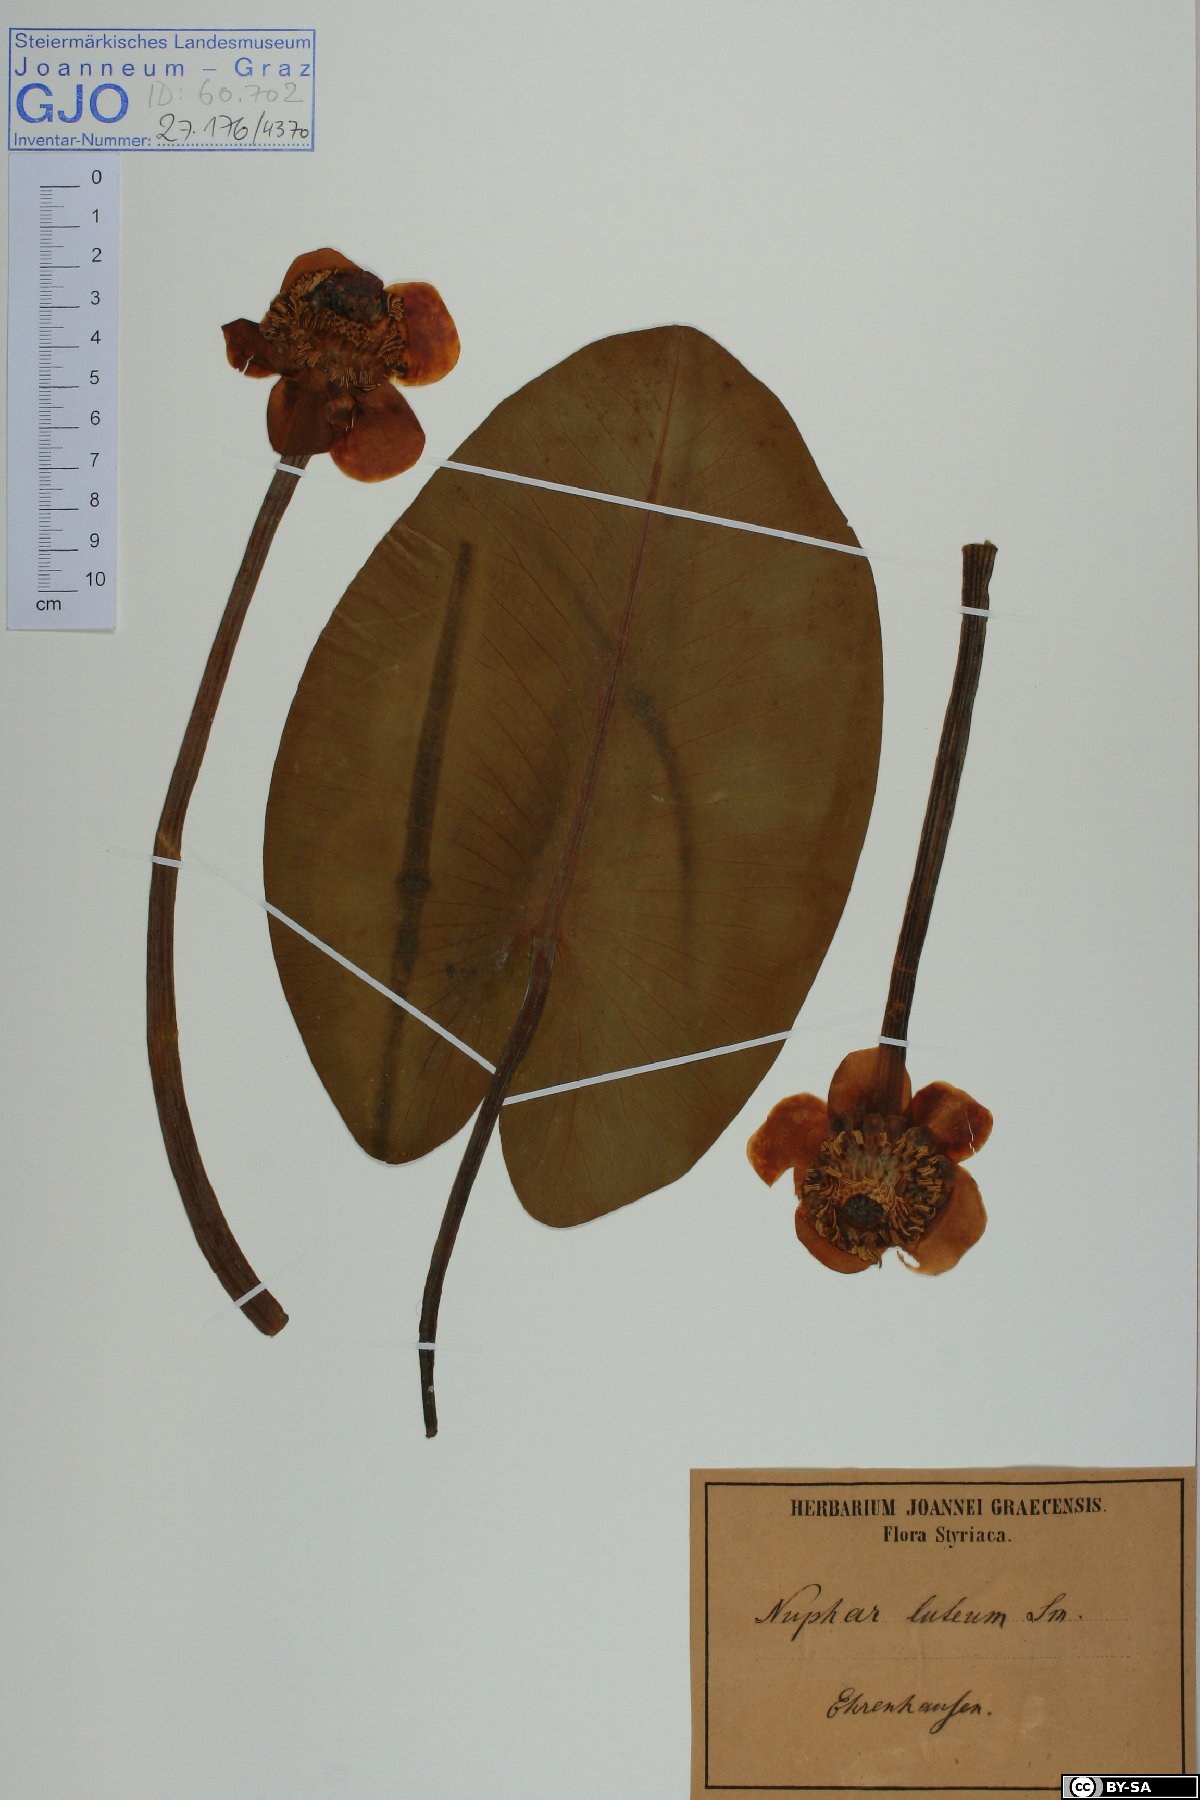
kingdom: Plantae
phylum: Tracheophyta
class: Magnoliopsida
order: Nymphaeales
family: Nymphaeaceae
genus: Nuphar
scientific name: Nuphar lutea
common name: Yellow water-lily
